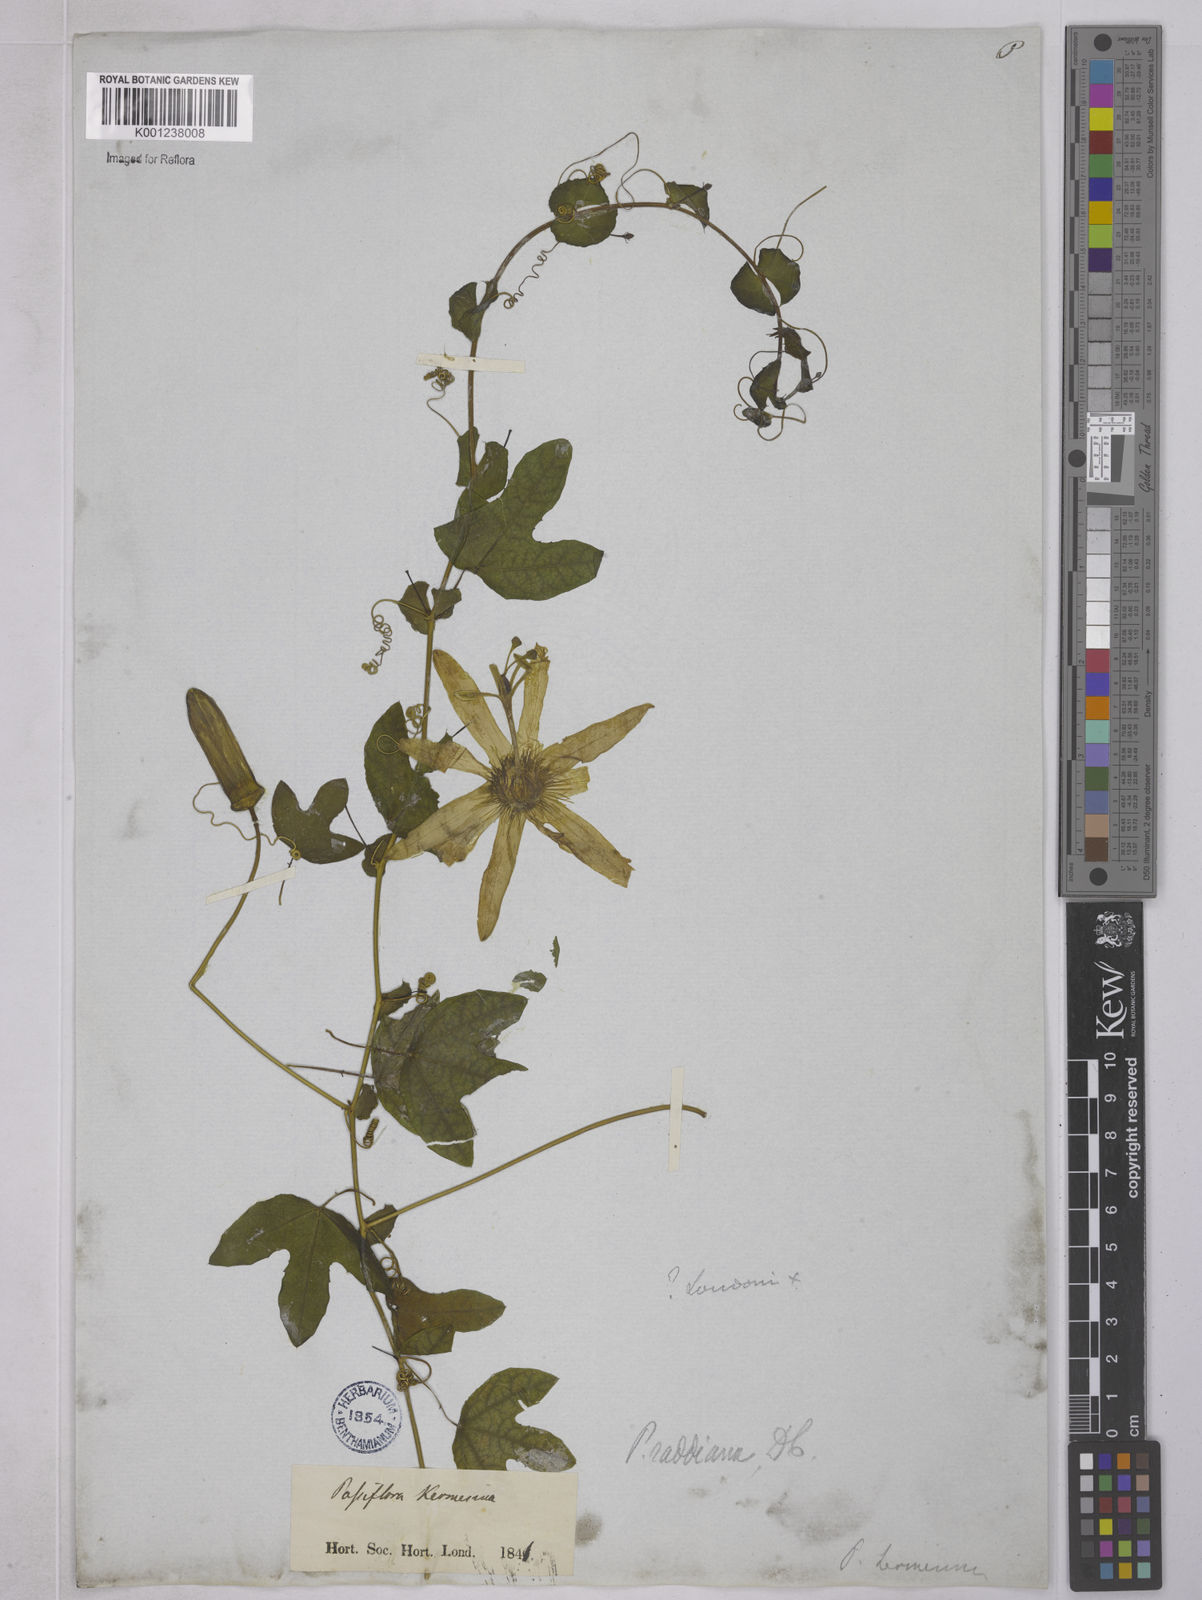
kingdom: Plantae
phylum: Tracheophyta
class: Magnoliopsida
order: Malpighiales
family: Passifloraceae
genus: Passiflora
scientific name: Passiflora kermesina
